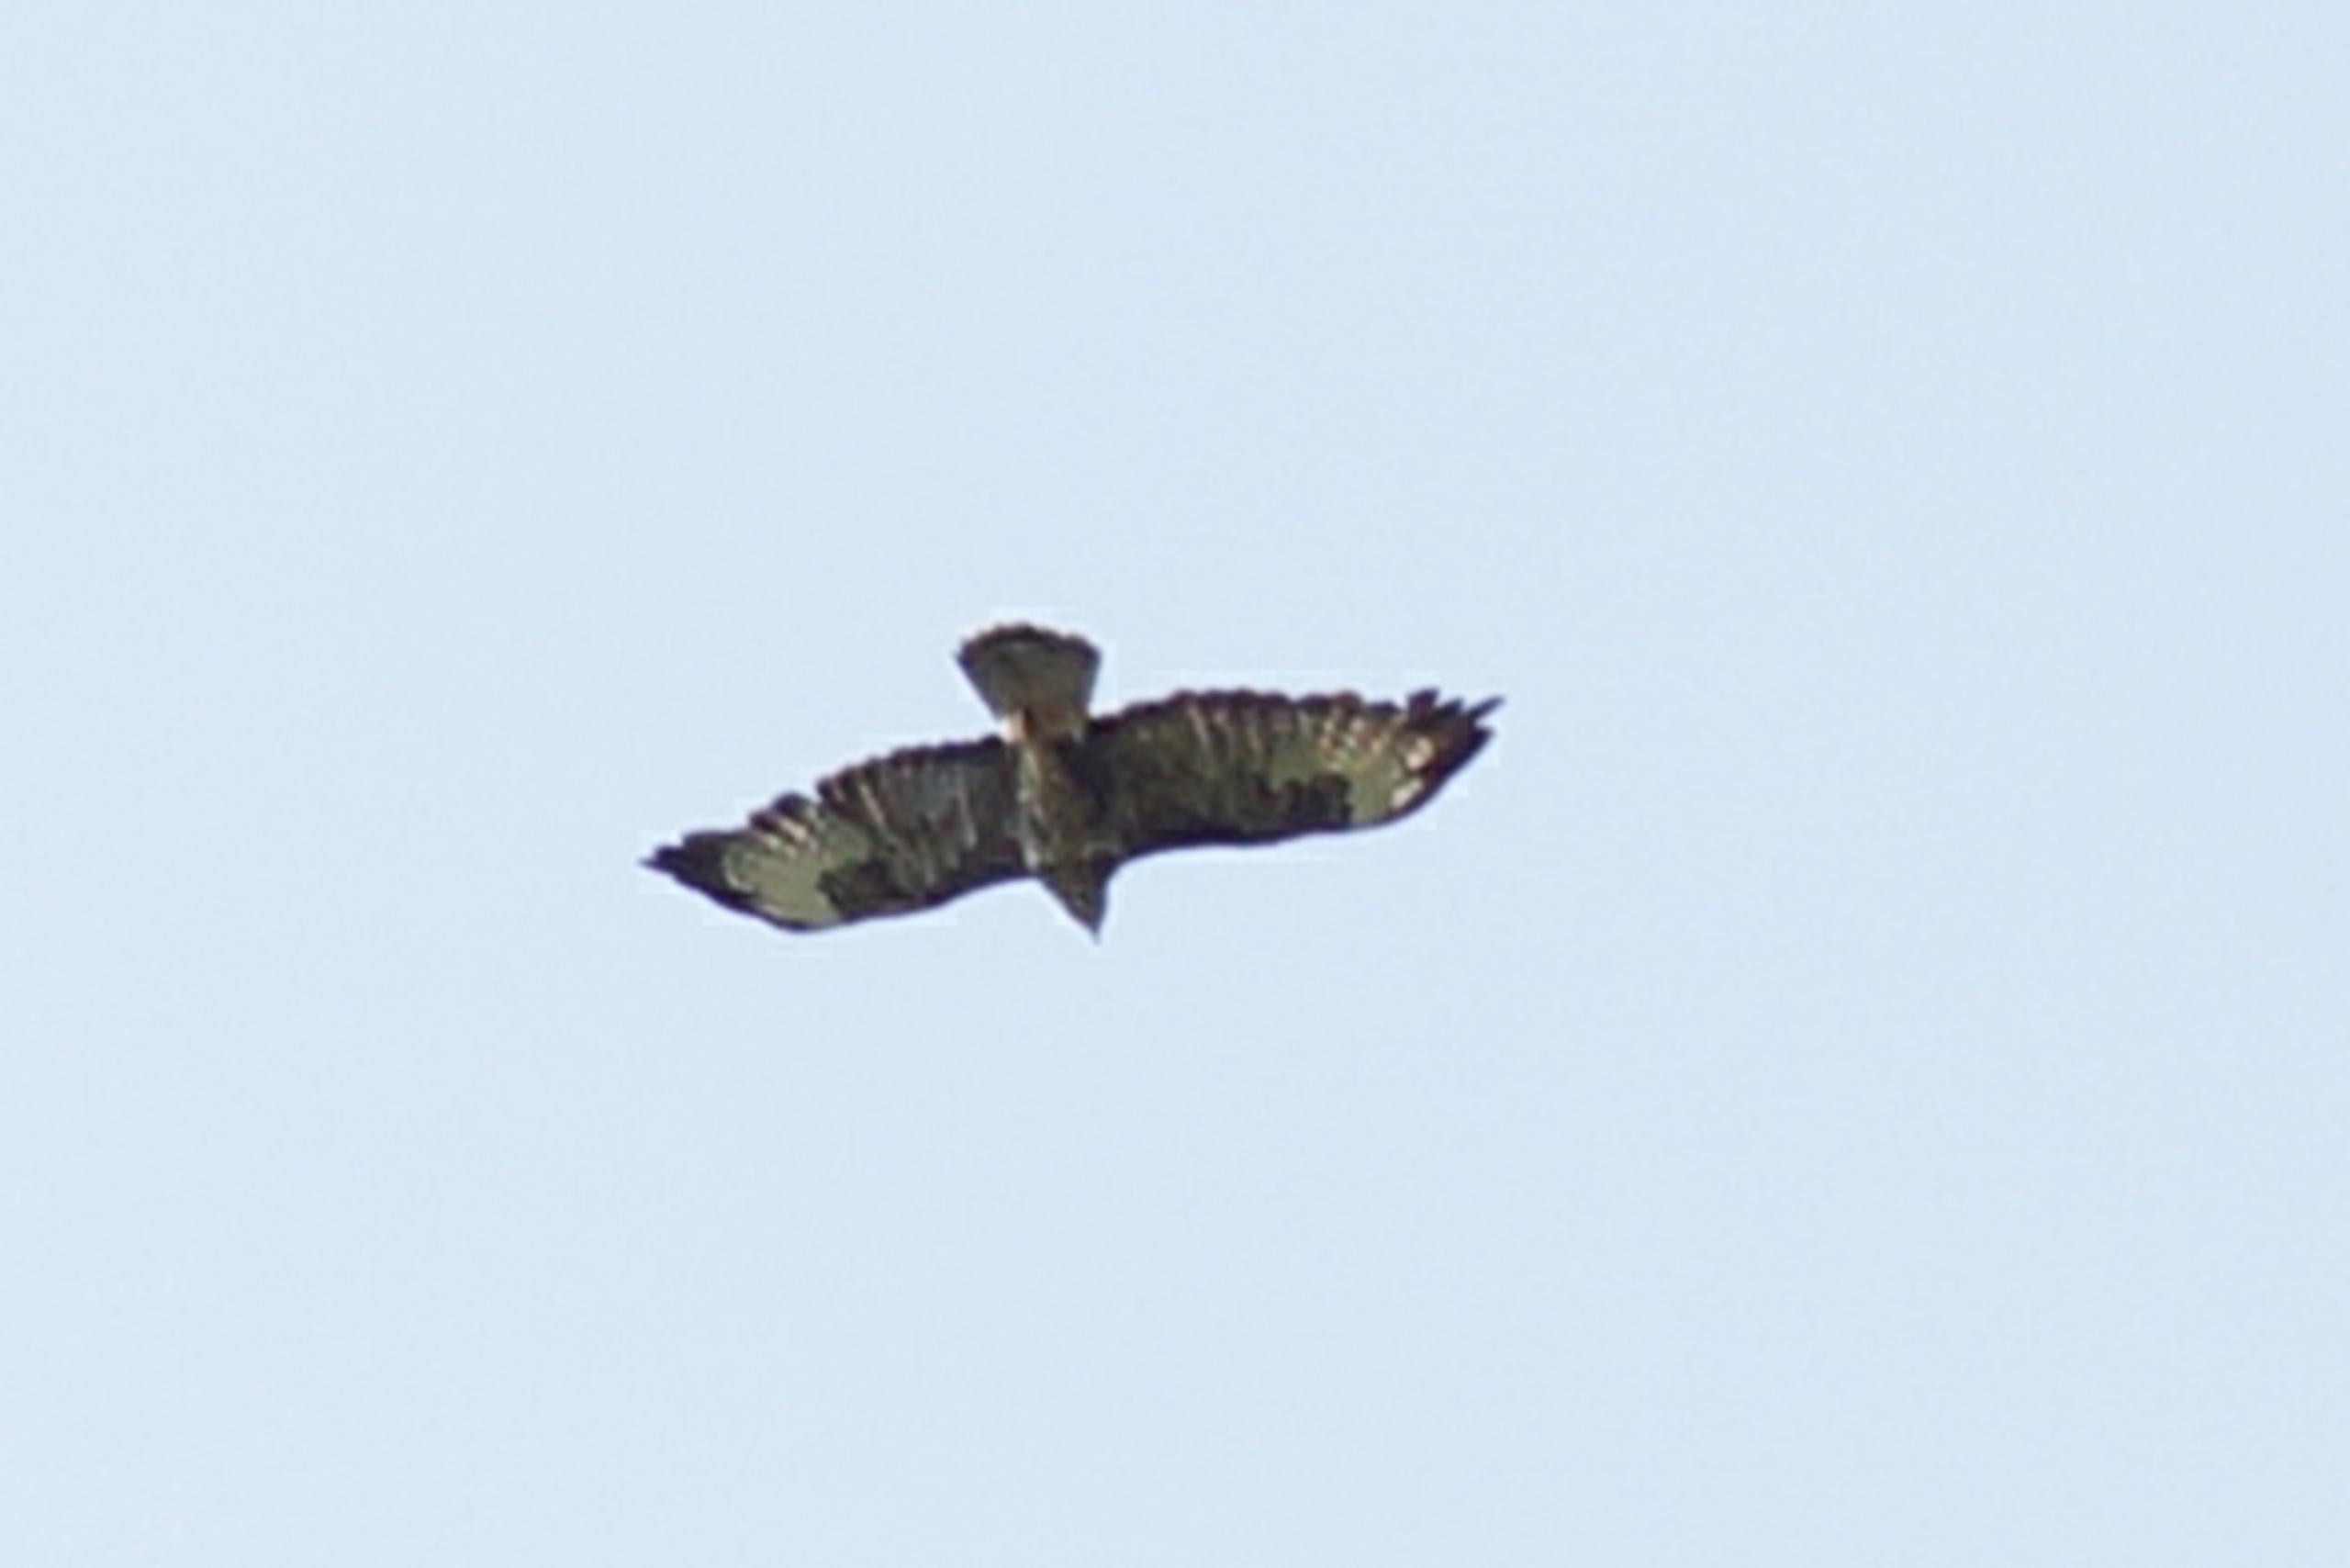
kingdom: Animalia
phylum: Chordata
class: Aves
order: Accipitriformes
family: Accipitridae
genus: Buteo
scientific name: Buteo buteo
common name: Musvåge
